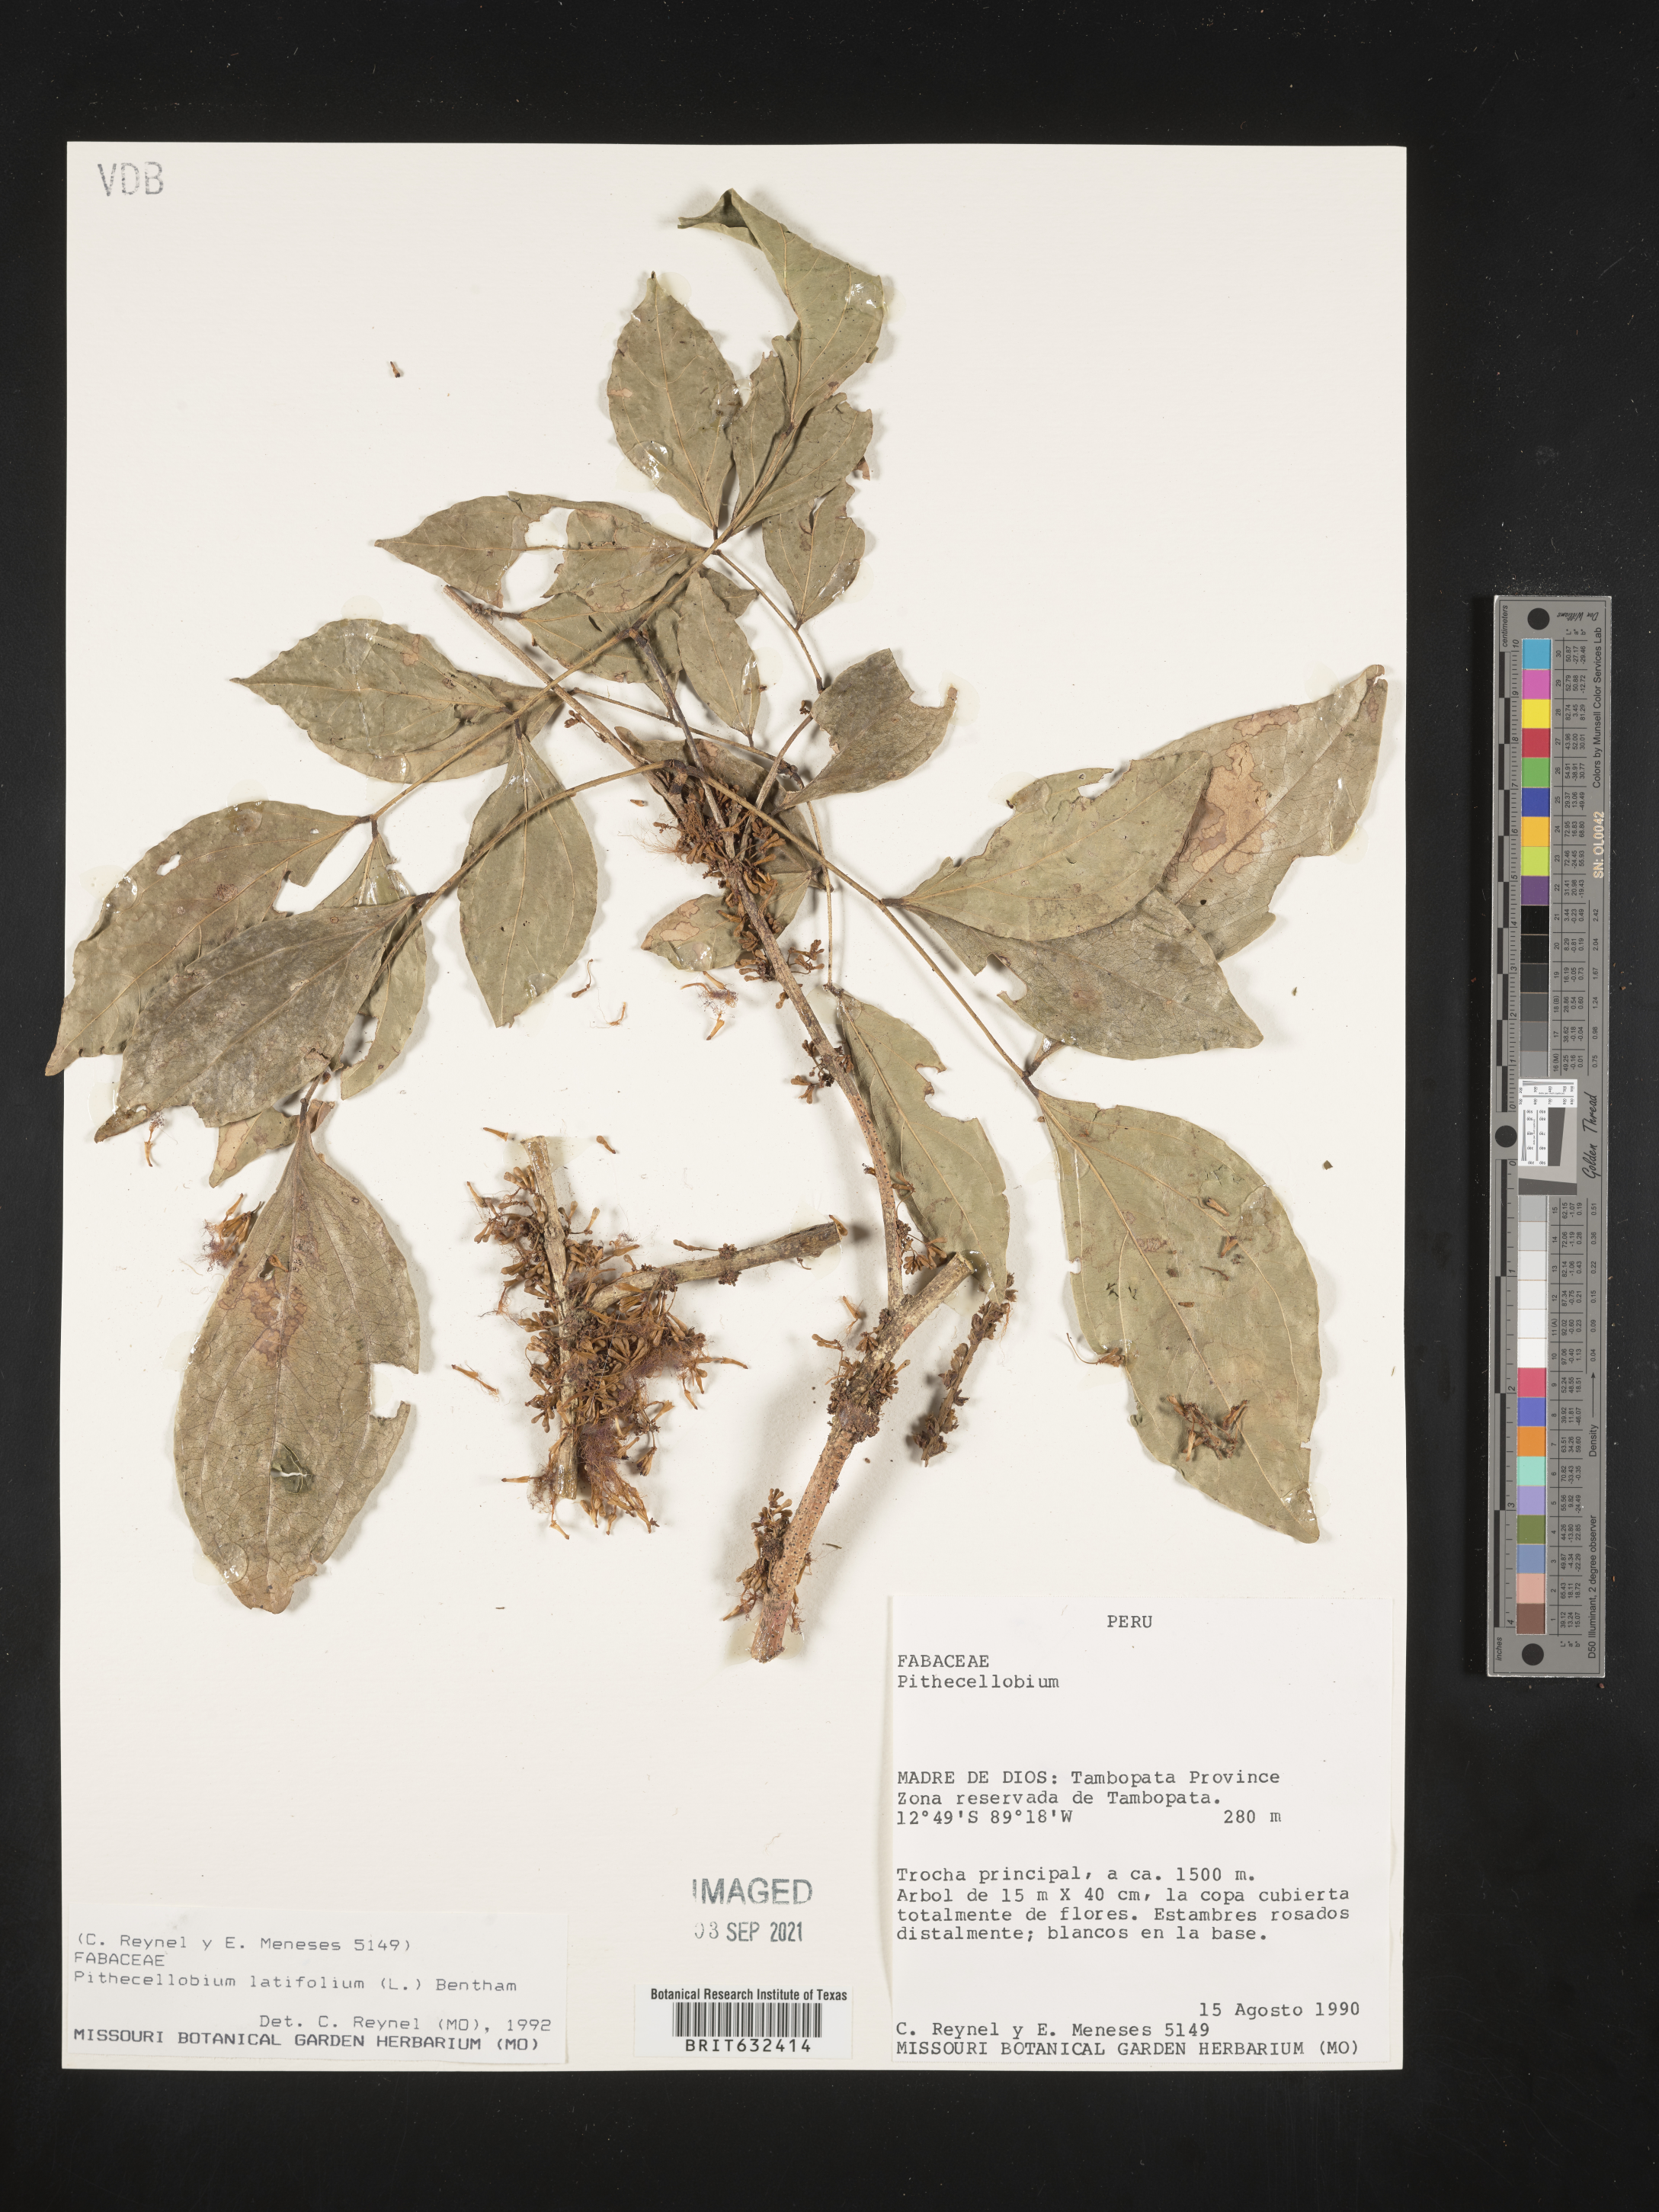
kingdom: Plantae
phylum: Tracheophyta
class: Magnoliopsida
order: Fabales
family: Fabaceae
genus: Pithecellobium
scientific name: Pithecellobium
